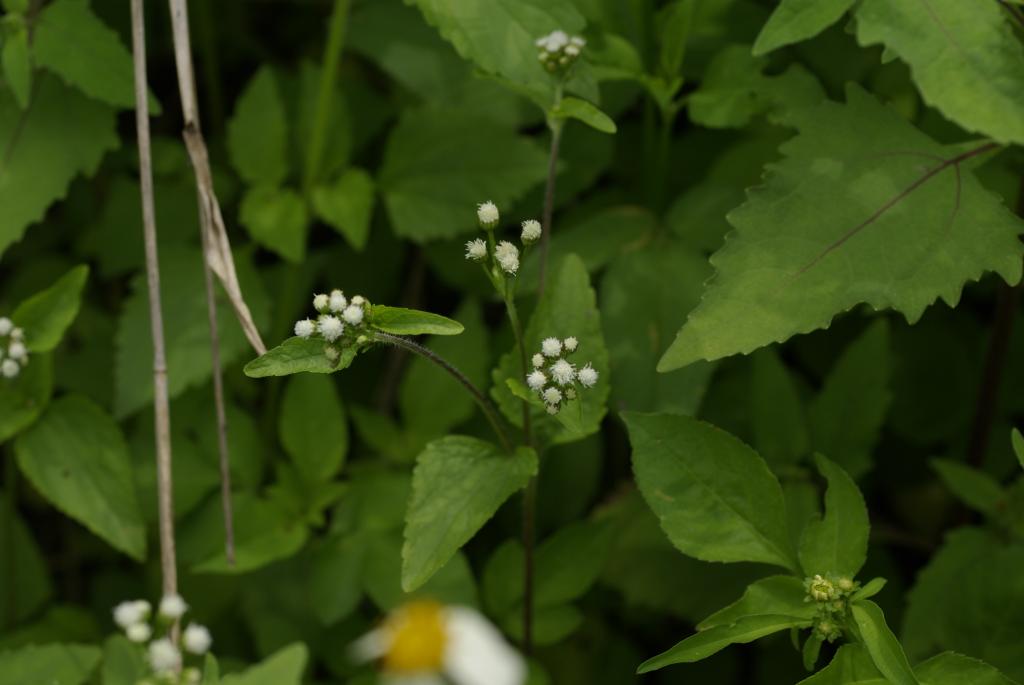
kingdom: Plantae
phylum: Tracheophyta
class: Magnoliopsida
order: Asterales
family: Asteraceae
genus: Ageratum
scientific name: Ageratum conyzoides
